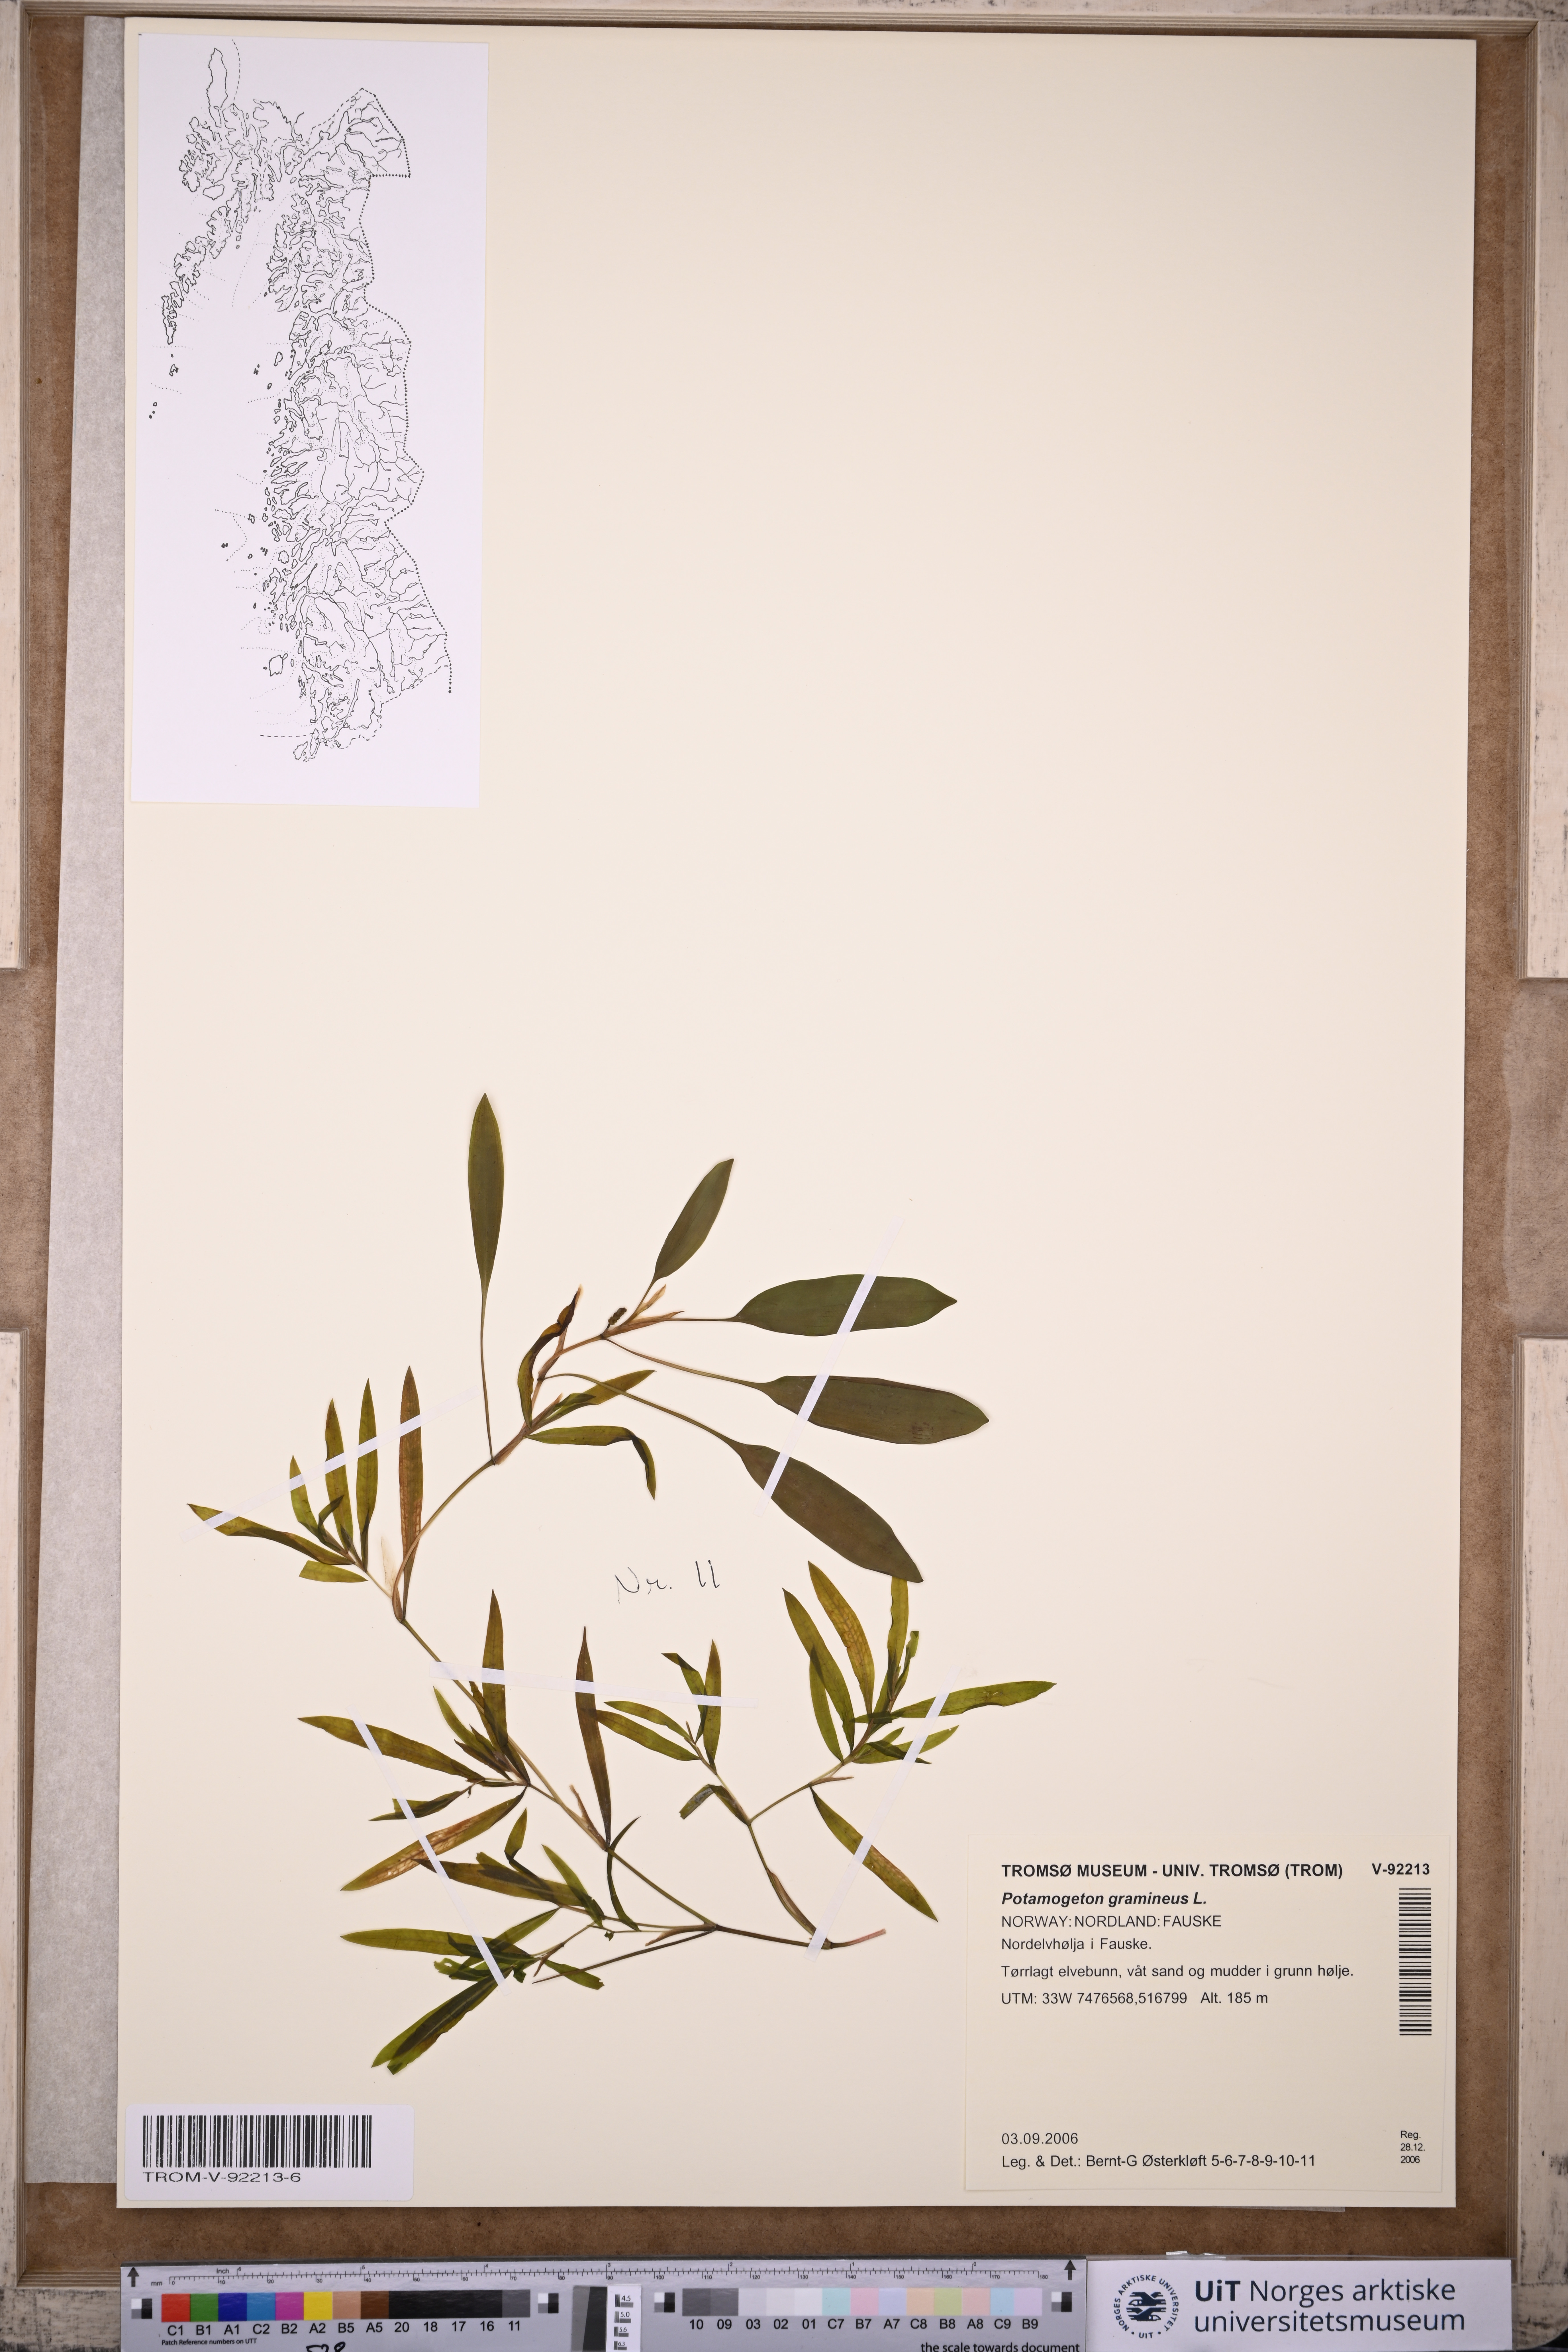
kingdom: Plantae
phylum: Tracheophyta
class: Liliopsida
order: Alismatales
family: Potamogetonaceae
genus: Potamogeton
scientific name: Potamogeton gramineus
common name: Various-leaved pondweed
